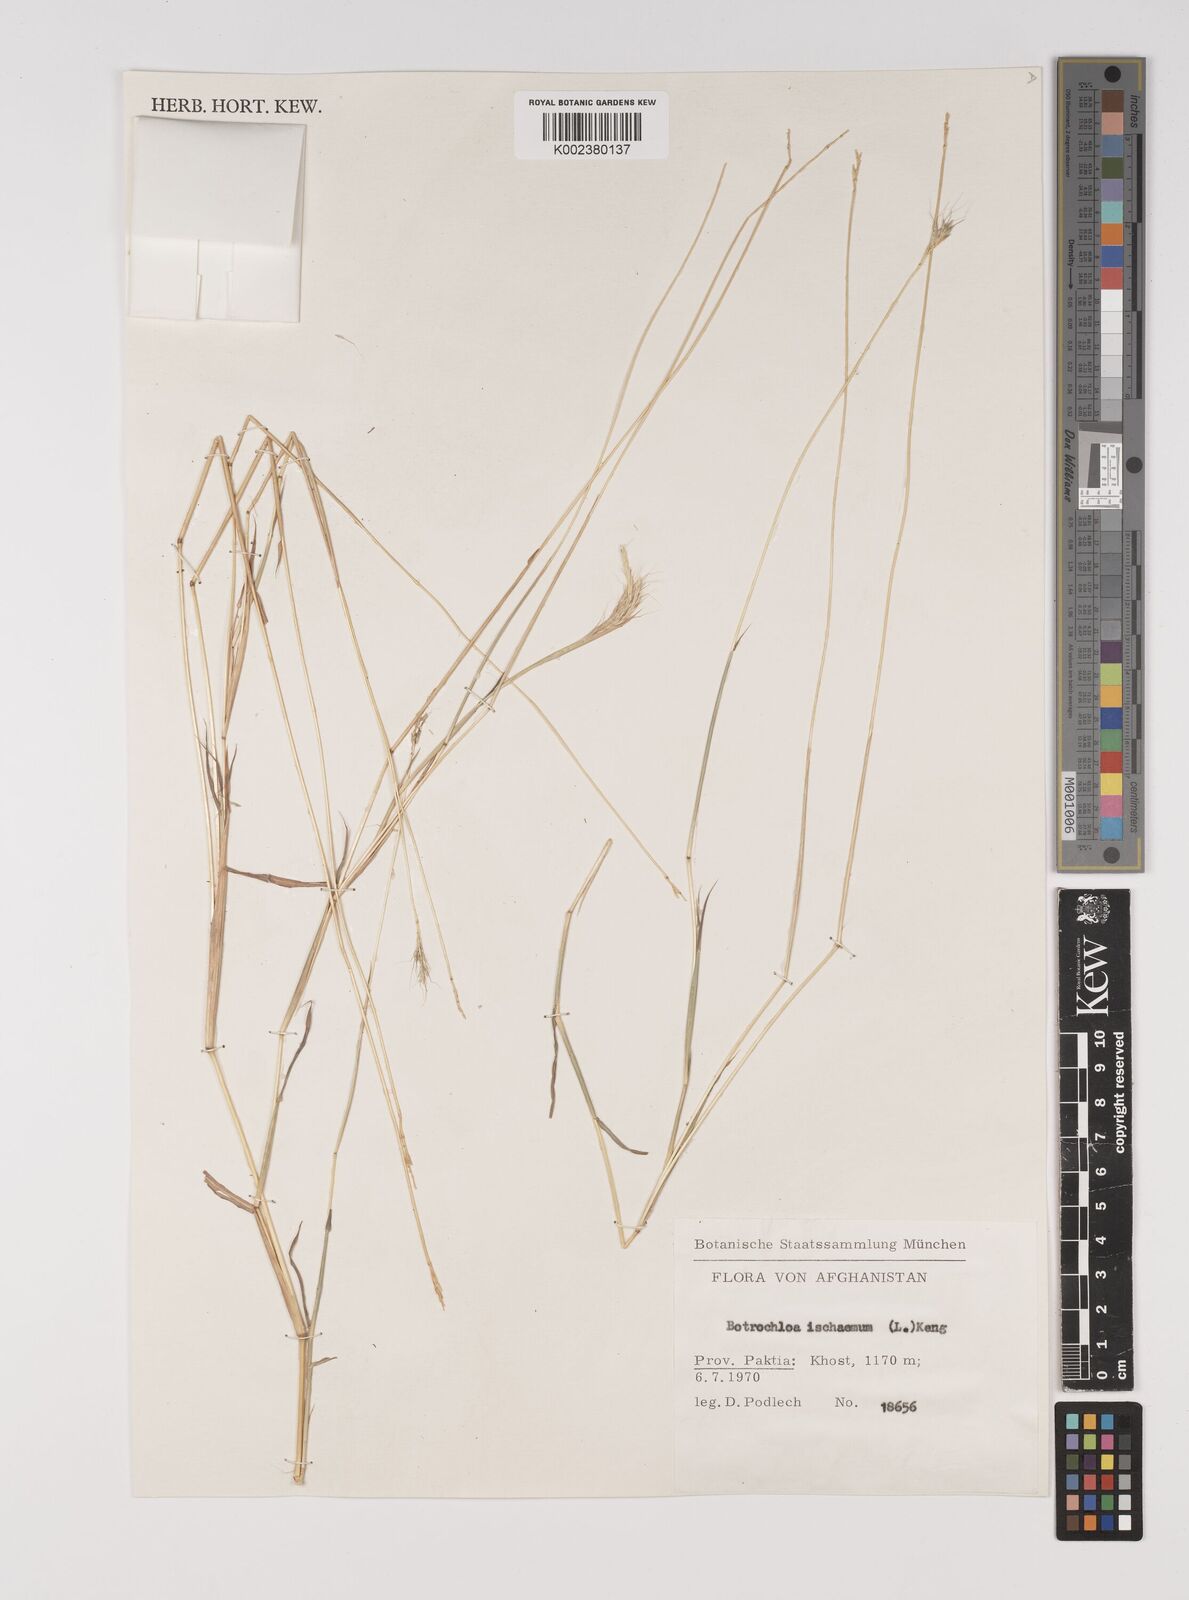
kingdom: Plantae
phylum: Tracheophyta
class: Liliopsida
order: Poales
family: Poaceae
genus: Bothriochloa
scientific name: Bothriochloa ischaemum
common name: Yellow bluestem
